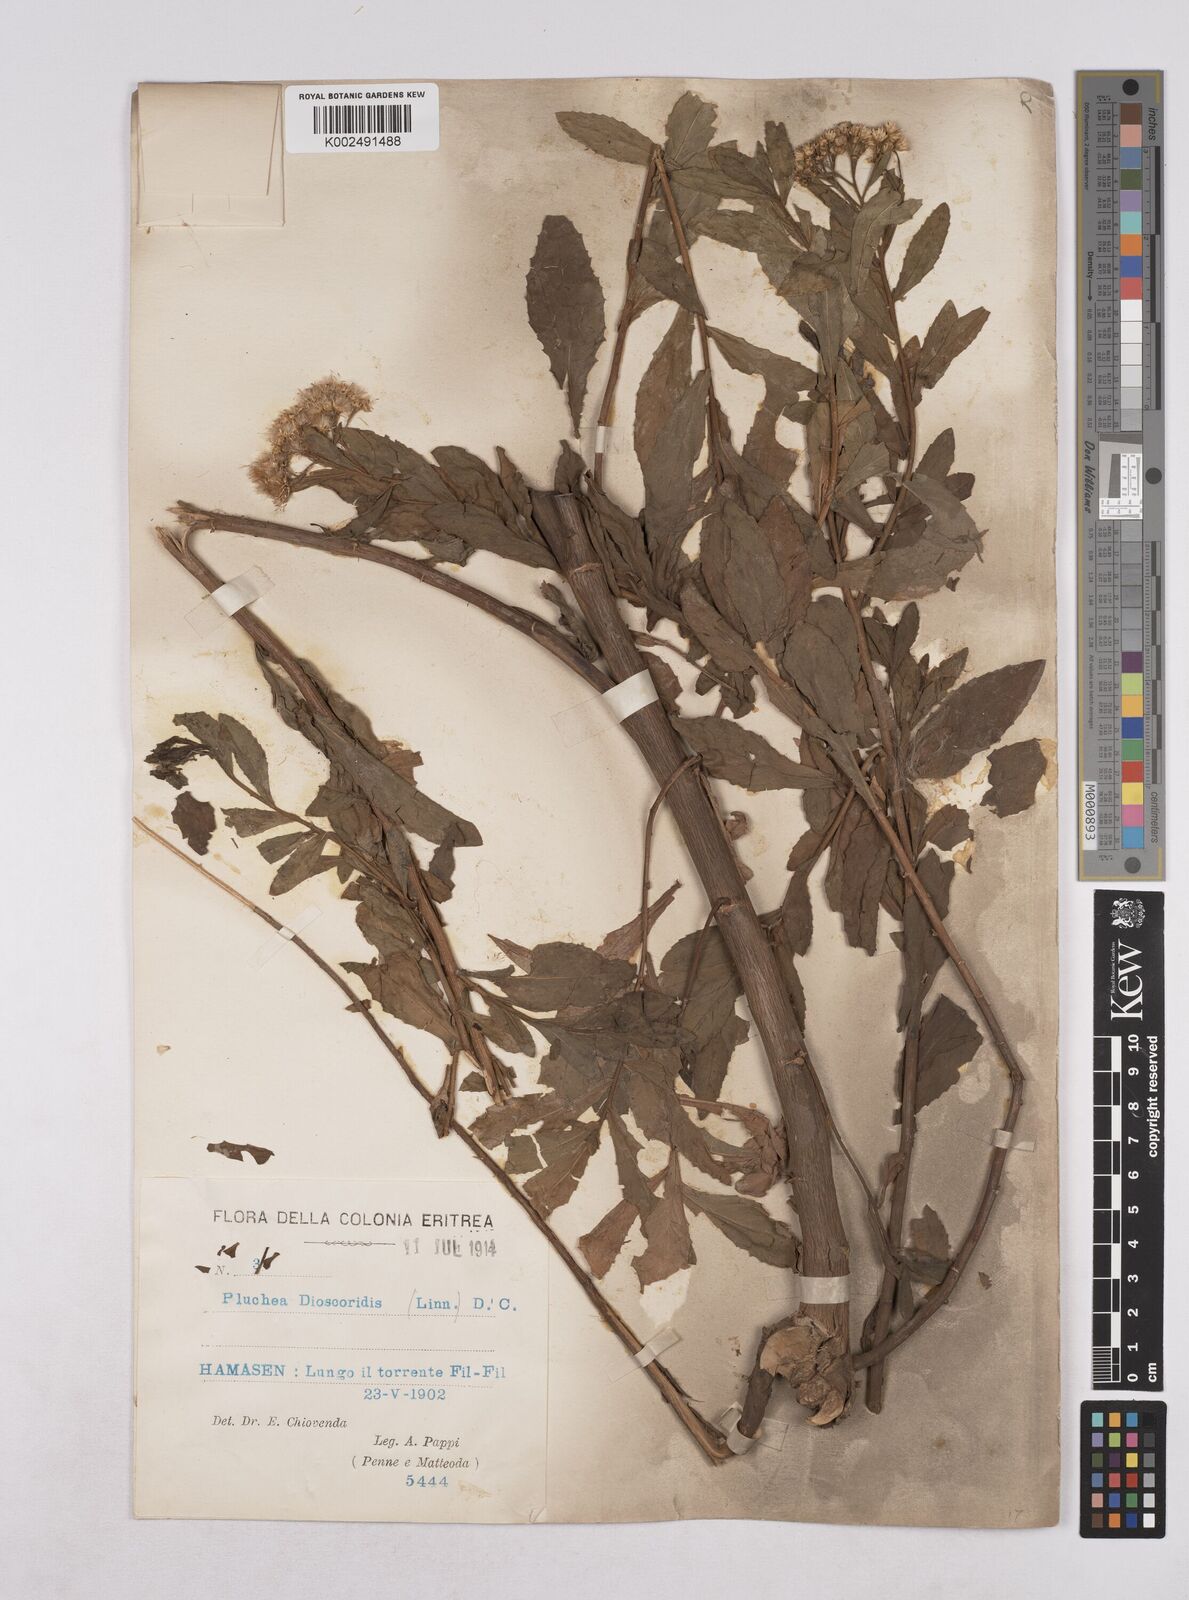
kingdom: Plantae
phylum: Tracheophyta
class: Magnoliopsida
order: Asterales
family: Asteraceae
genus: Pluchea
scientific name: Pluchea dioscoridis
